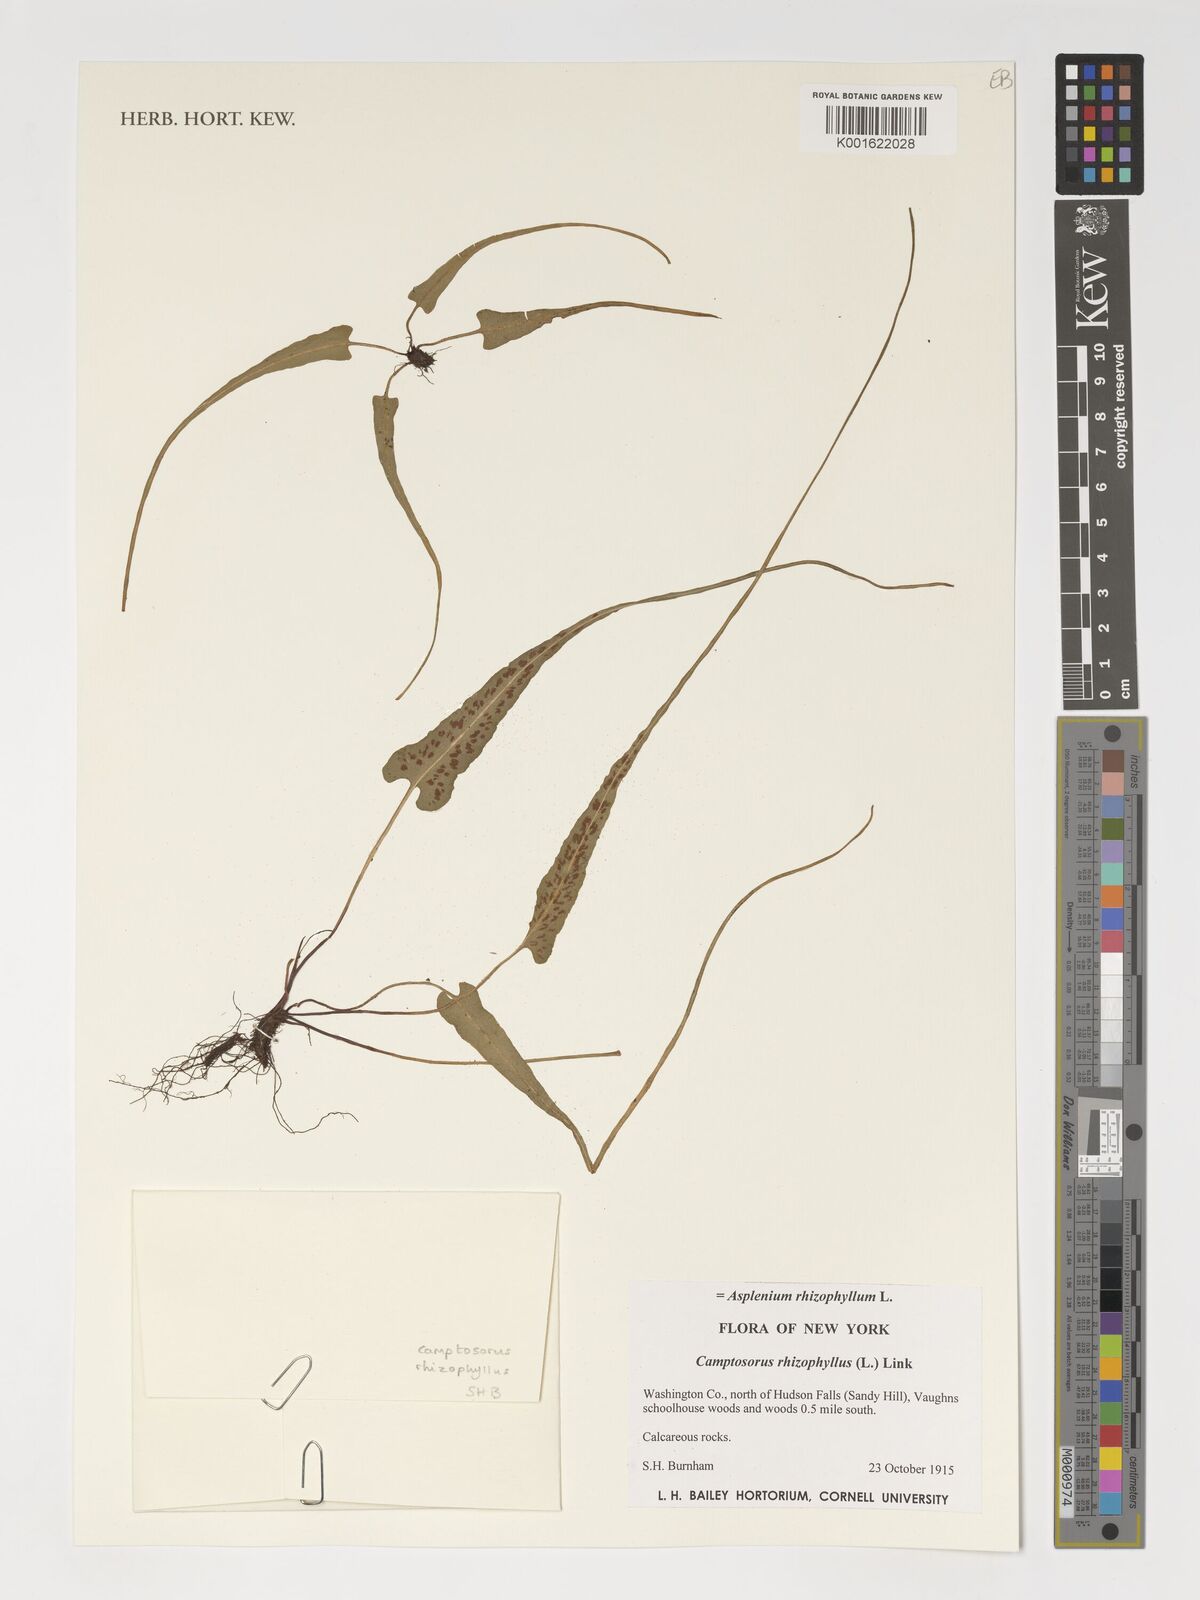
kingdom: Plantae
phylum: Tracheophyta
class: Polypodiopsida
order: Polypodiales
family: Aspleniaceae
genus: Asplenium
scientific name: Asplenium rhizophyllum
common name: Walking fern
